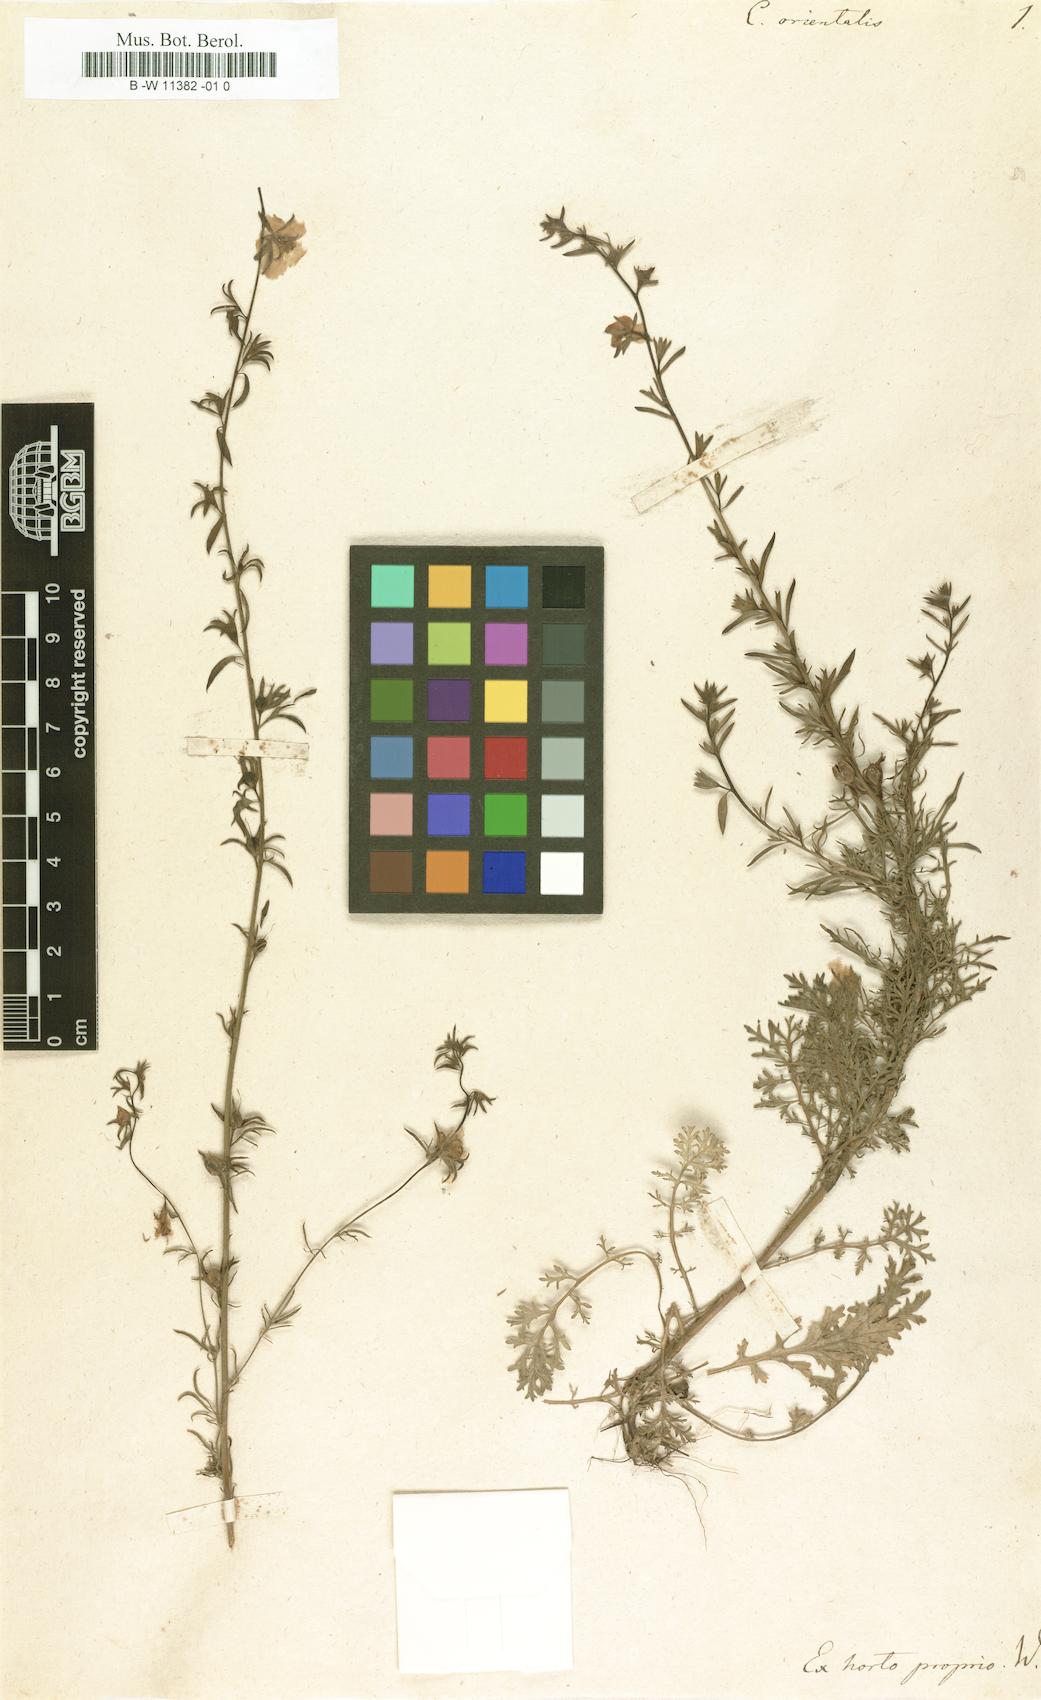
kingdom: Plantae
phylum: Tracheophyta
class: Magnoliopsida
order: Lamiales
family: Scrophulariaceae
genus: Verbascum
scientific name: Verbascum orientale
